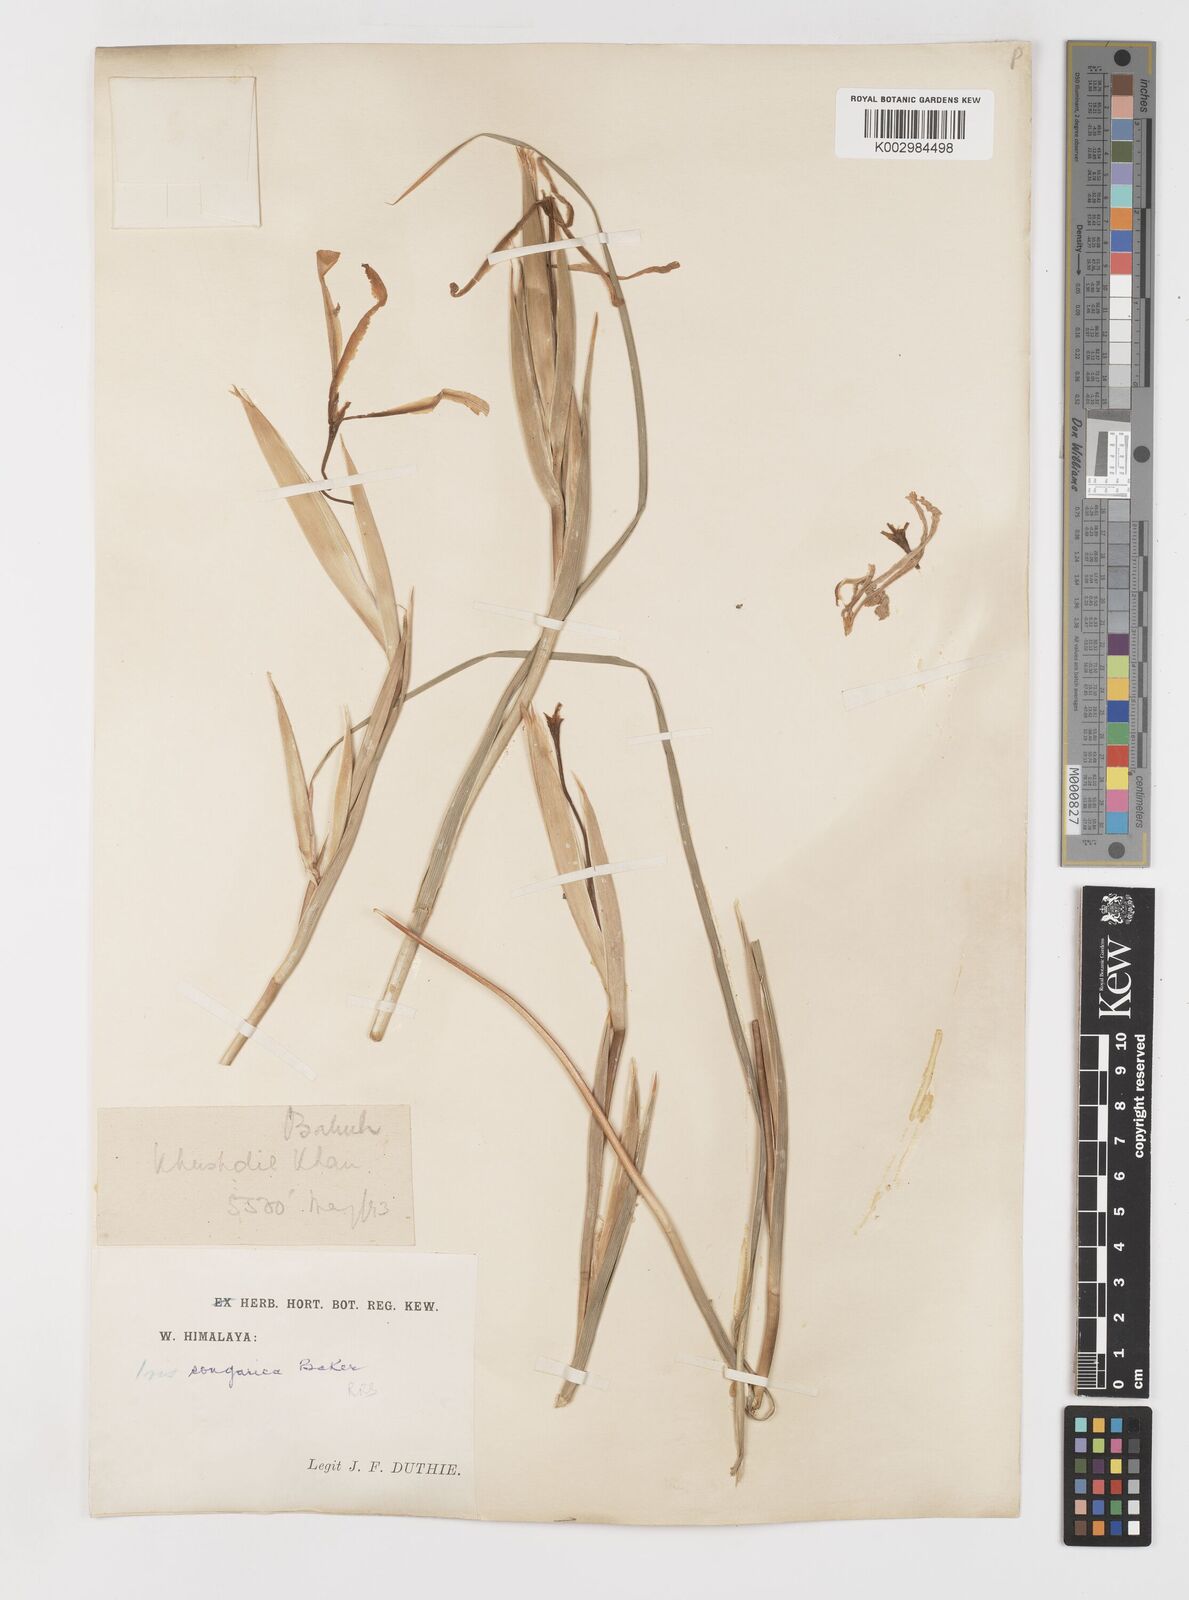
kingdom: Plantae
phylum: Tracheophyta
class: Liliopsida
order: Asparagales
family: Iridaceae
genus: Iris
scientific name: Iris songarica
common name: Songar iris
